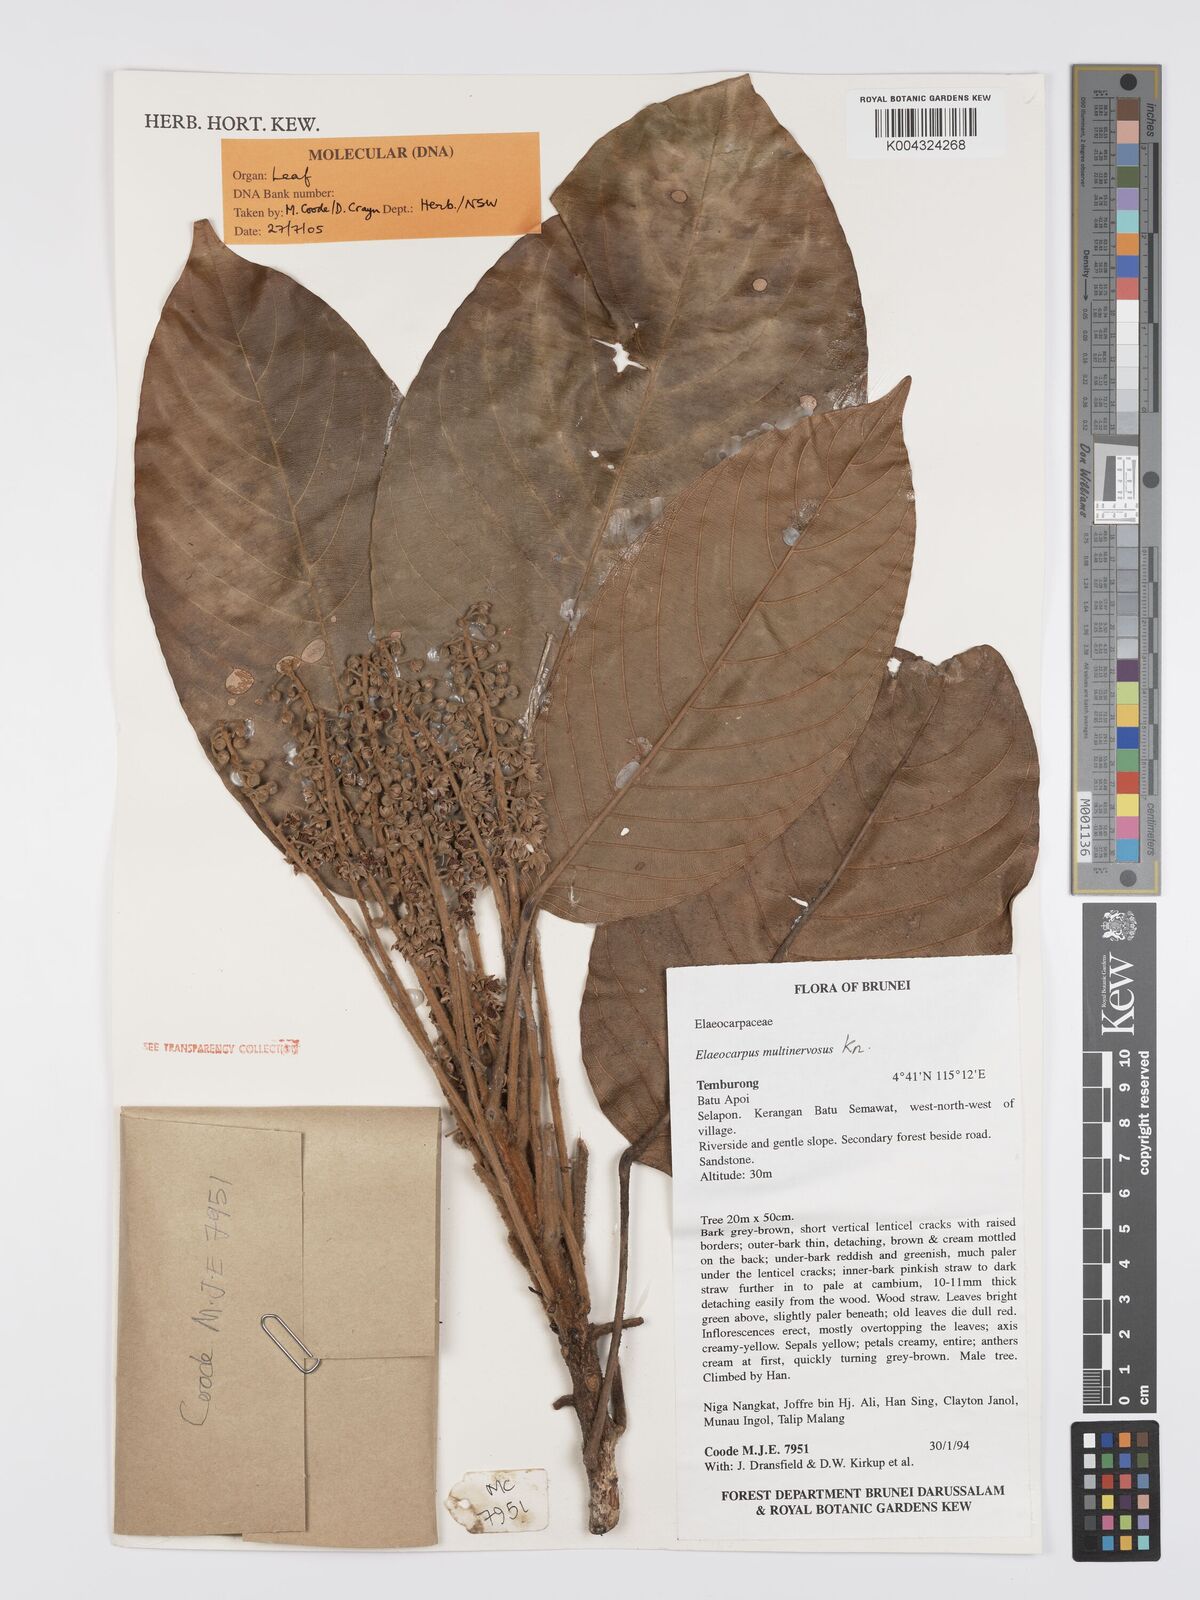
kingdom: Plantae
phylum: Tracheophyta
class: Magnoliopsida
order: Oxalidales
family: Elaeocarpaceae
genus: Elaeocarpus
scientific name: Elaeocarpus multinervosus
